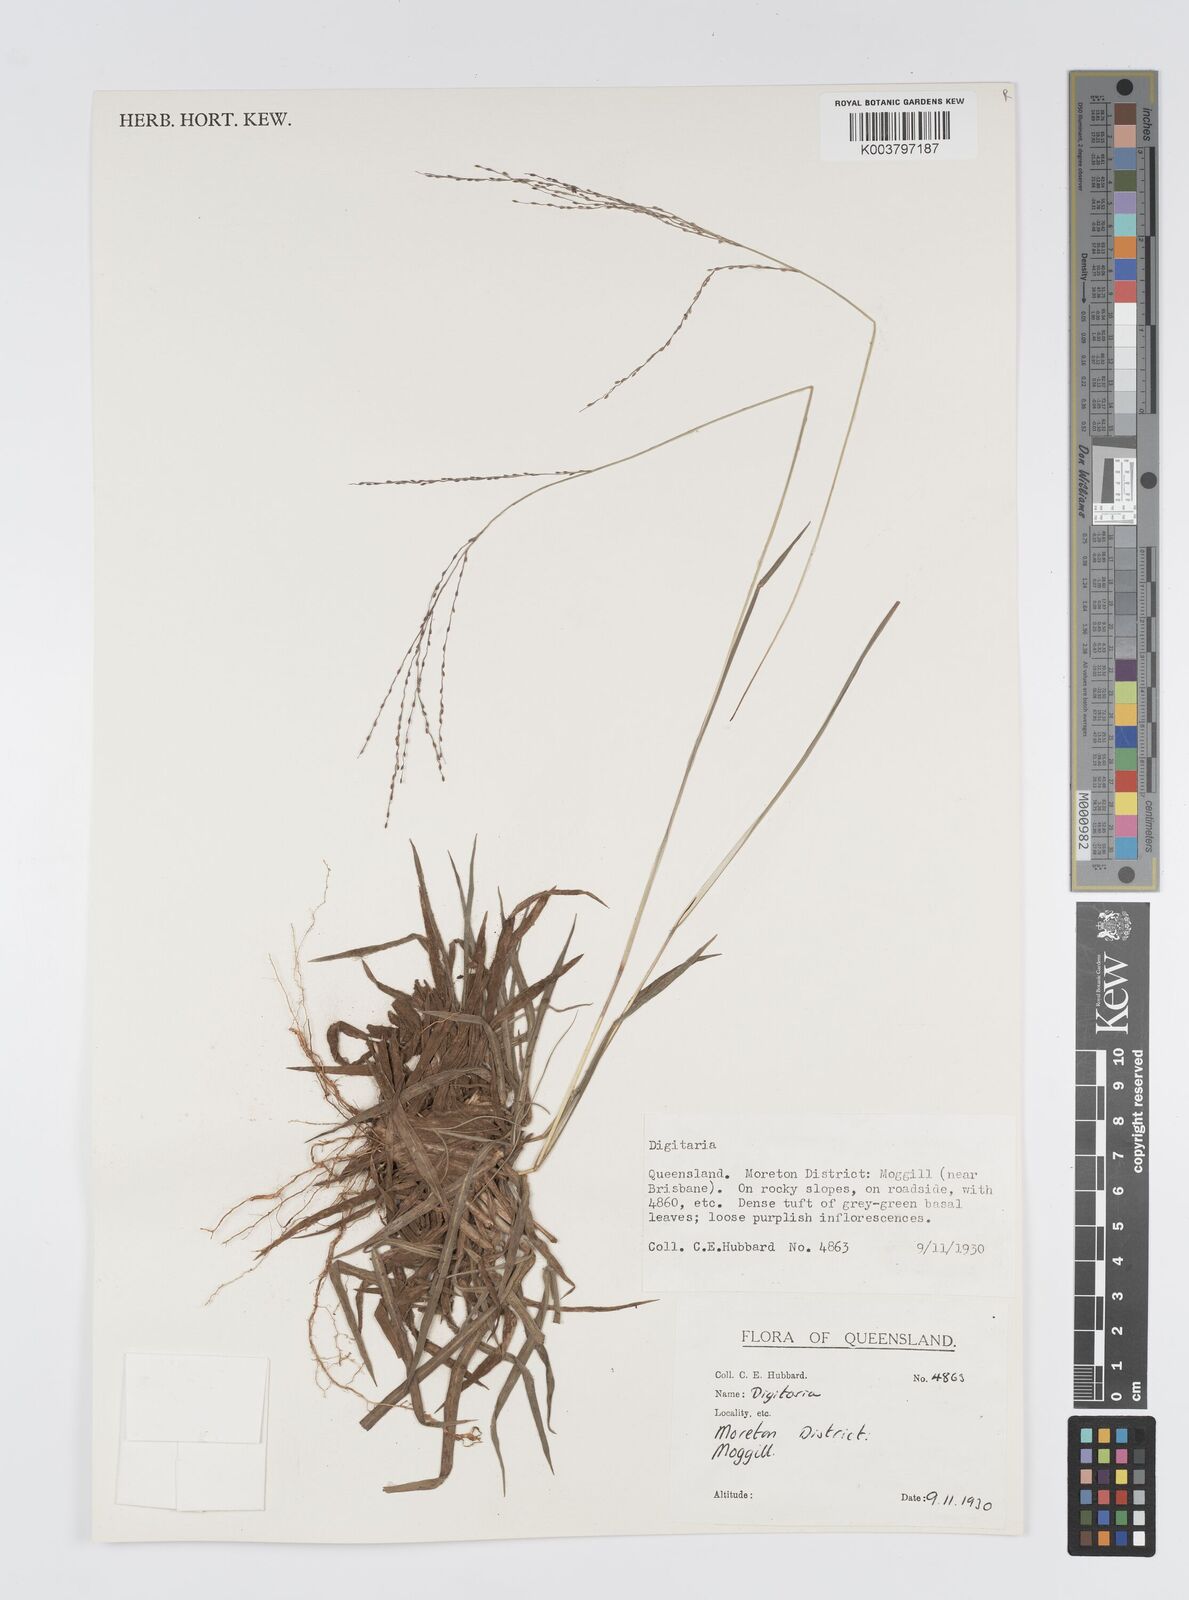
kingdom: Plantae
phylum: Tracheophyta
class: Liliopsida
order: Poales
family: Poaceae
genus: Digitaria
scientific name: Digitaria spec
